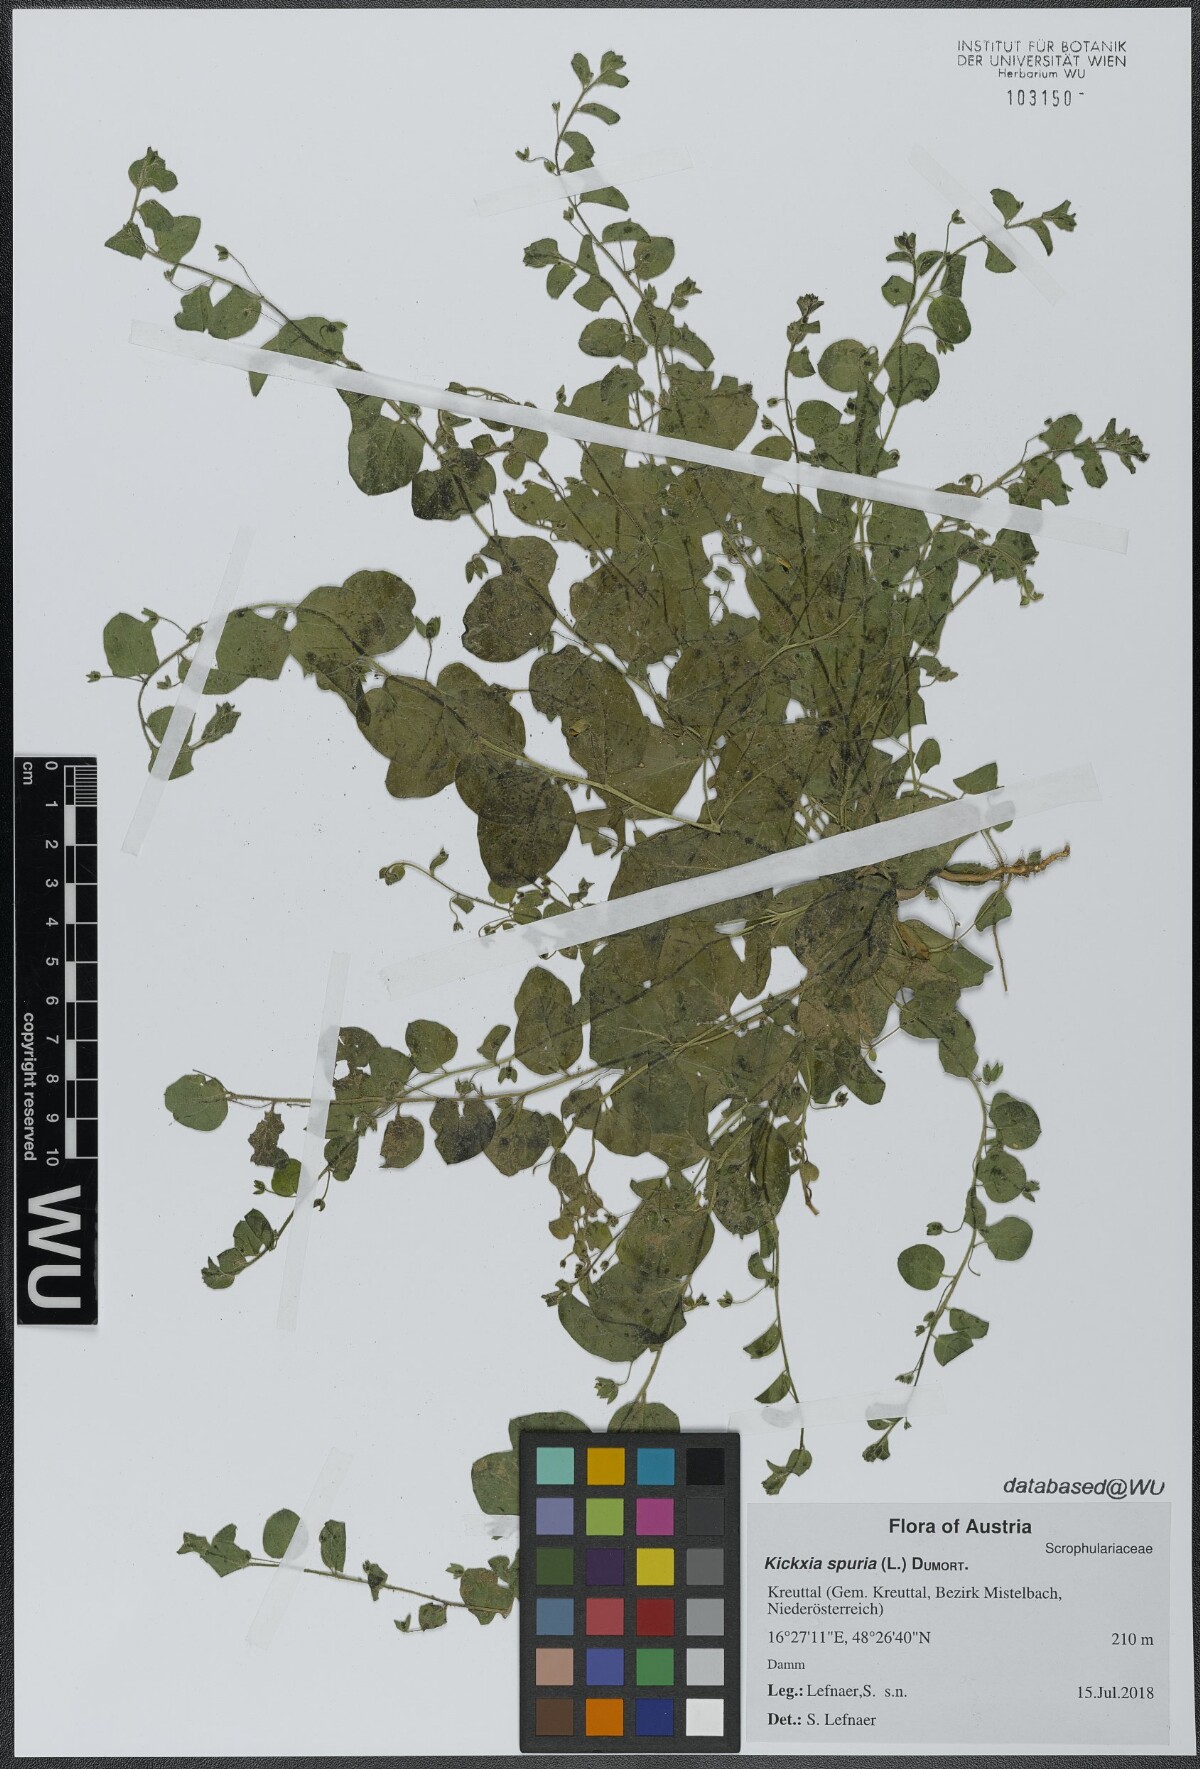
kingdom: Plantae
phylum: Tracheophyta
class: Magnoliopsida
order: Lamiales
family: Plantaginaceae
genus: Kickxia
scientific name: Kickxia spuria
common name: Round-leaved fluellen
